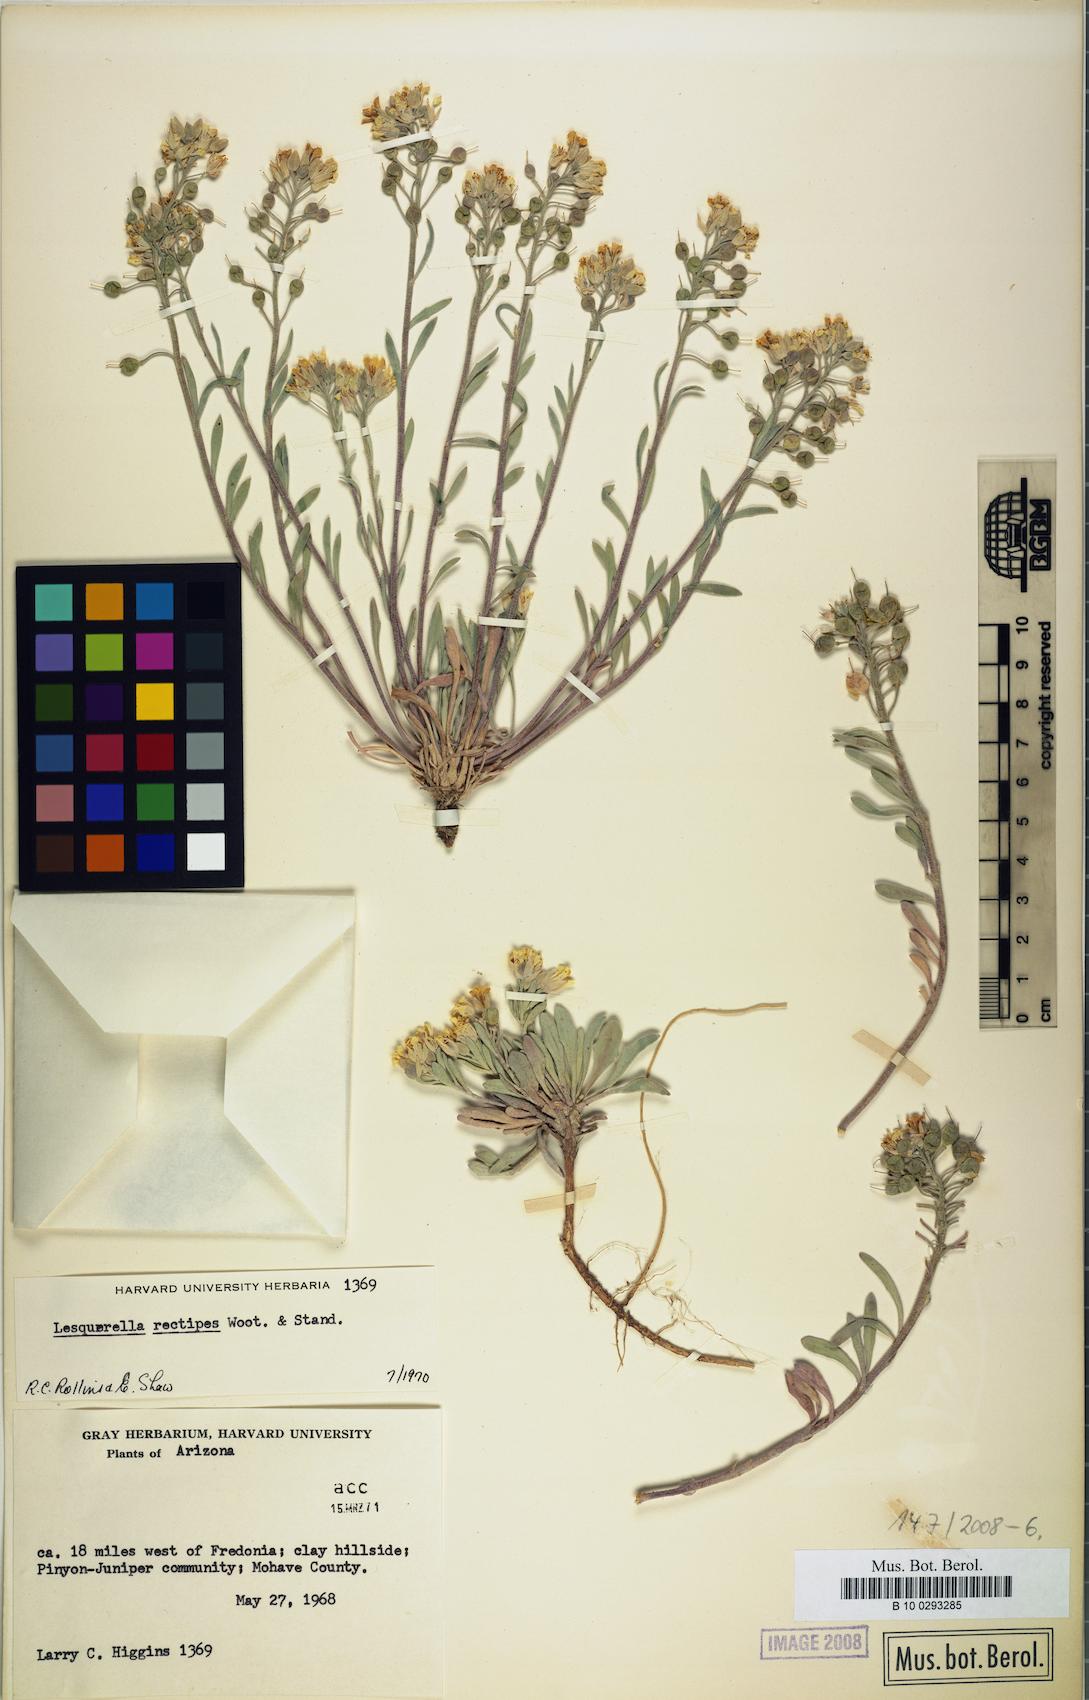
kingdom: Plantae
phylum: Tracheophyta
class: Magnoliopsida
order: Brassicales
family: Brassicaceae
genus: Physaria
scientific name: Physaria rectipes
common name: Colorado bladderpod
